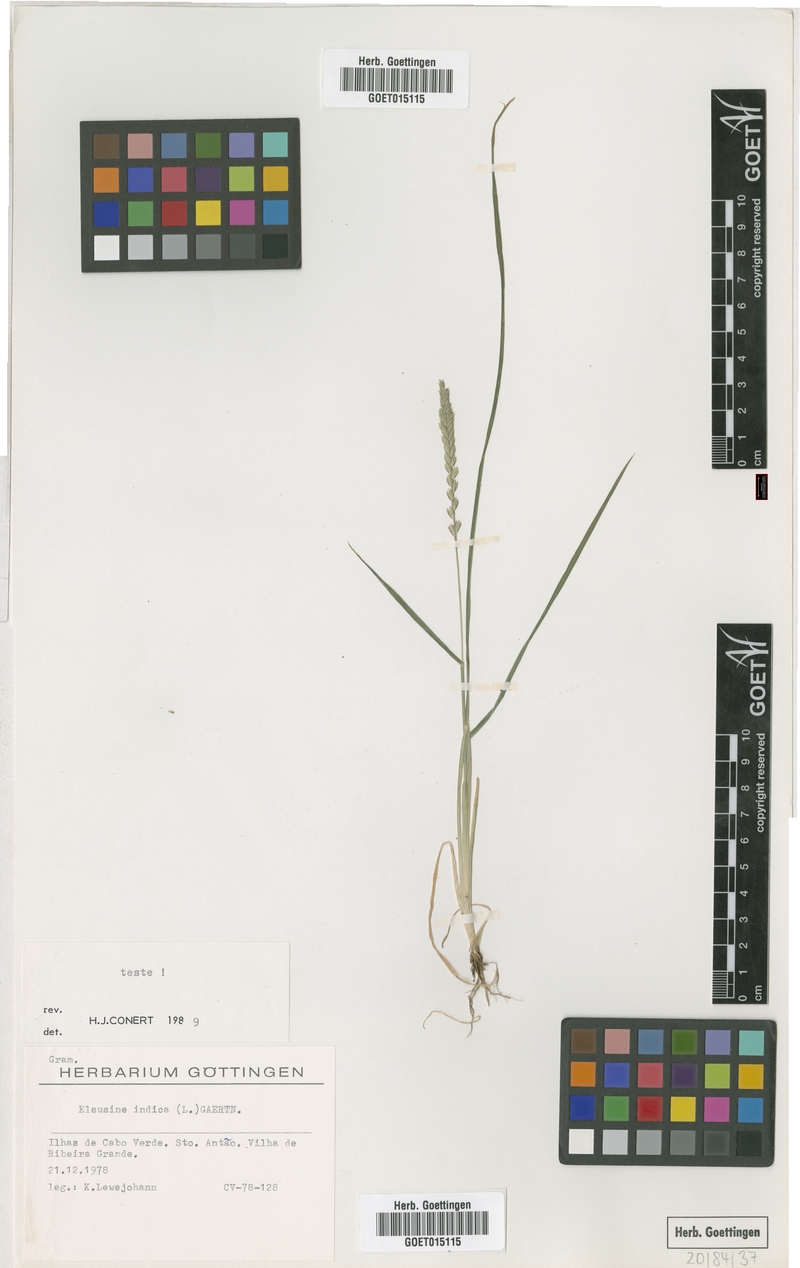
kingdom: Plantae
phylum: Tracheophyta
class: Liliopsida
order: Poales
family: Poaceae
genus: Eleusine
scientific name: Eleusine indica
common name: Yard-grass
